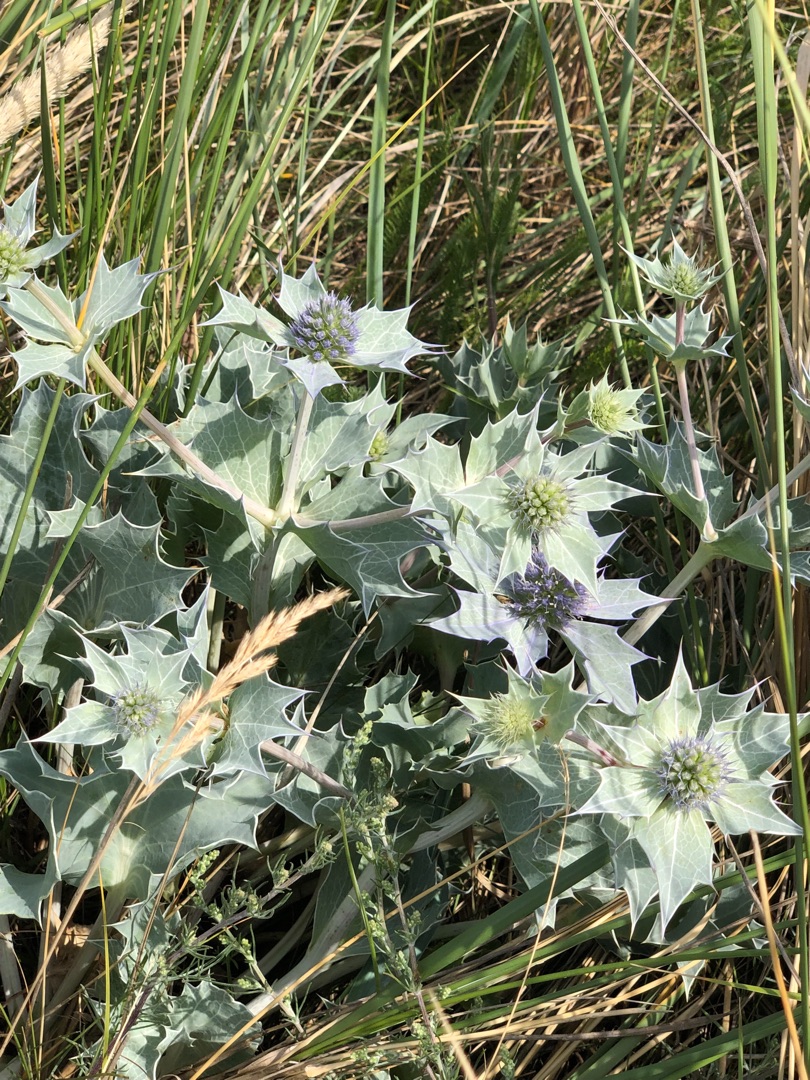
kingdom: Plantae
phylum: Tracheophyta
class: Magnoliopsida
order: Apiales
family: Apiaceae
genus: Eryngium
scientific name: Eryngium maritimum
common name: Strand-mandstro
